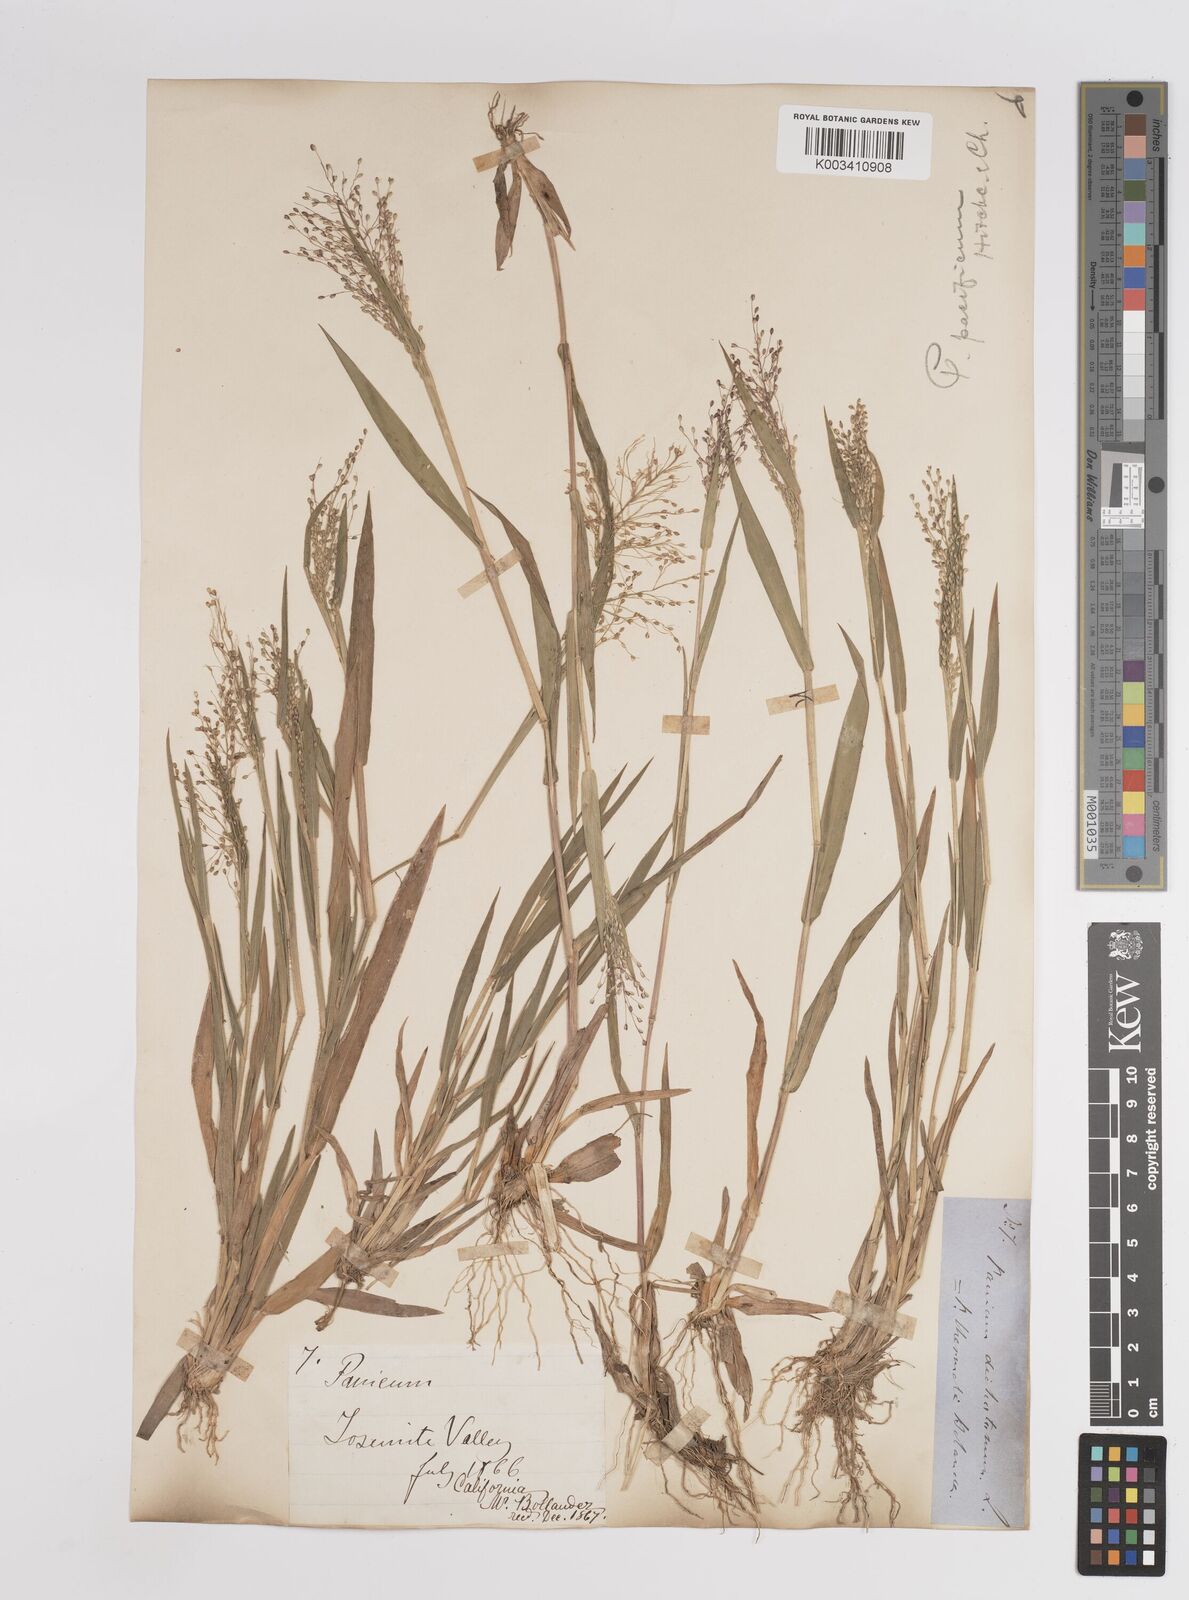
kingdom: Plantae
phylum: Tracheophyta
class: Liliopsida
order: Poales
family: Poaceae
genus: Dichanthelium
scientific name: Dichanthelium implicatum
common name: Slender-stemmed panicgrass
